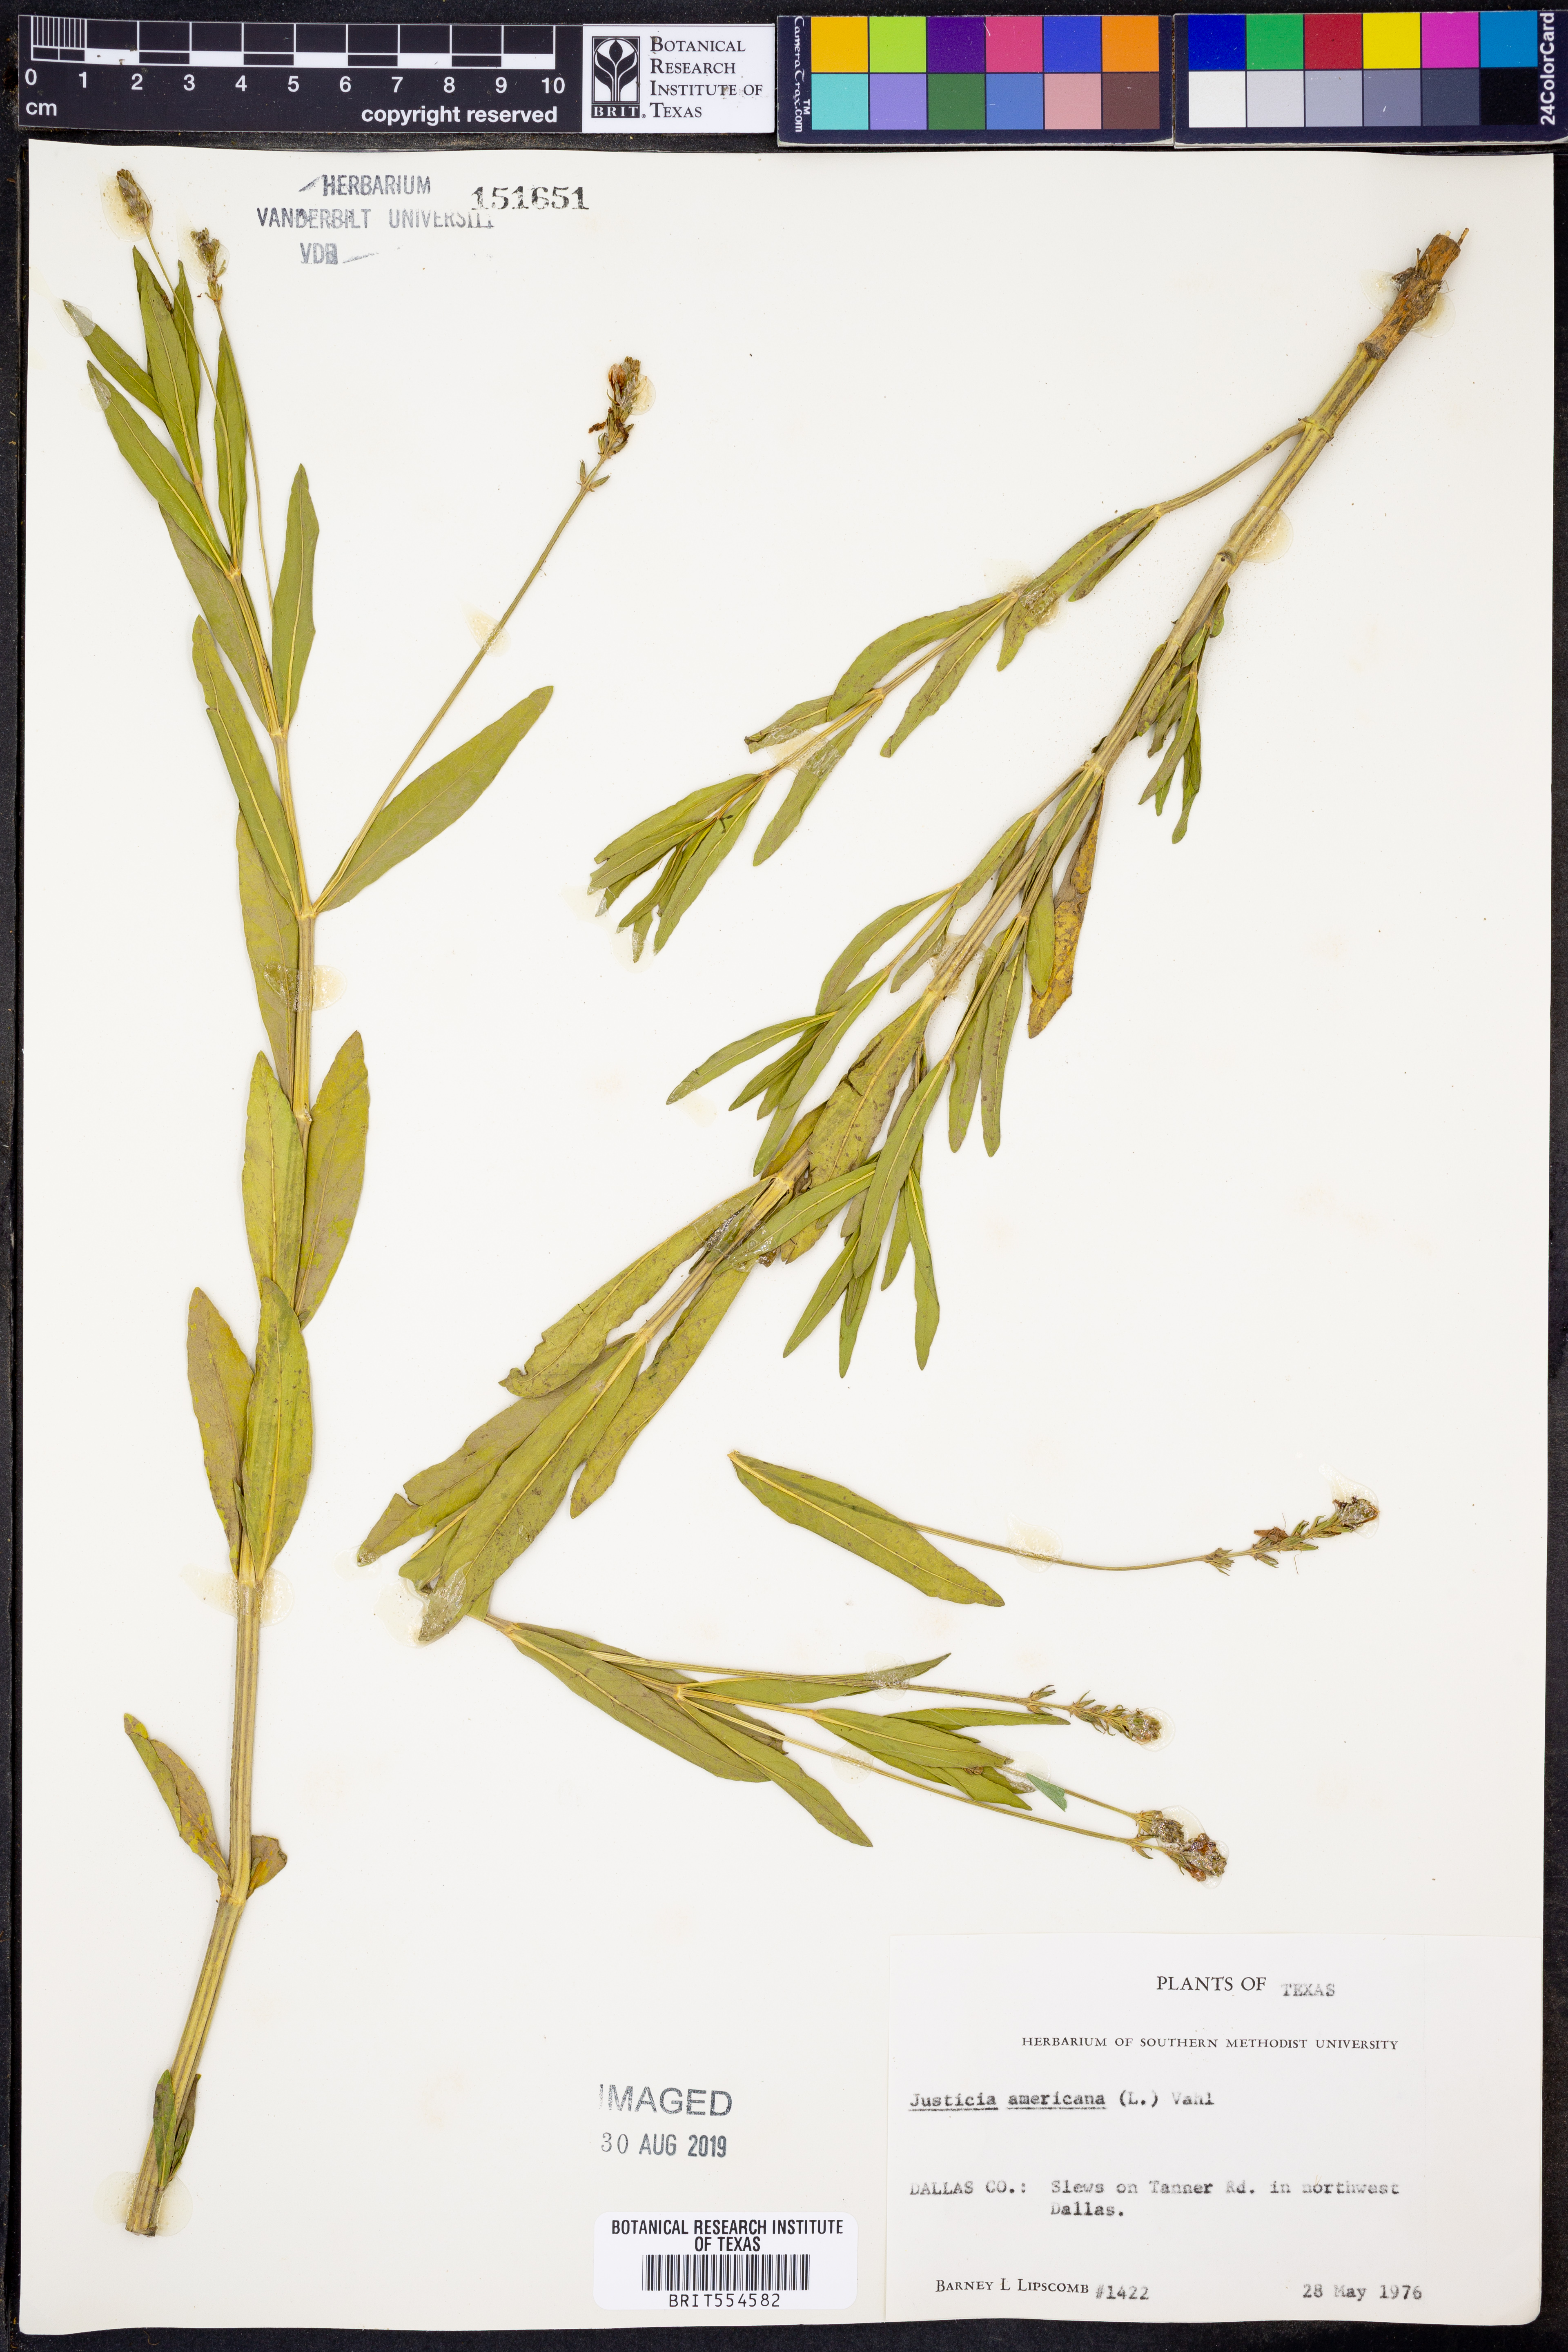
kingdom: Plantae
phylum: Tracheophyta
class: Magnoliopsida
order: Lamiales
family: Acanthaceae
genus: Dianthera
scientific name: Dianthera americana
